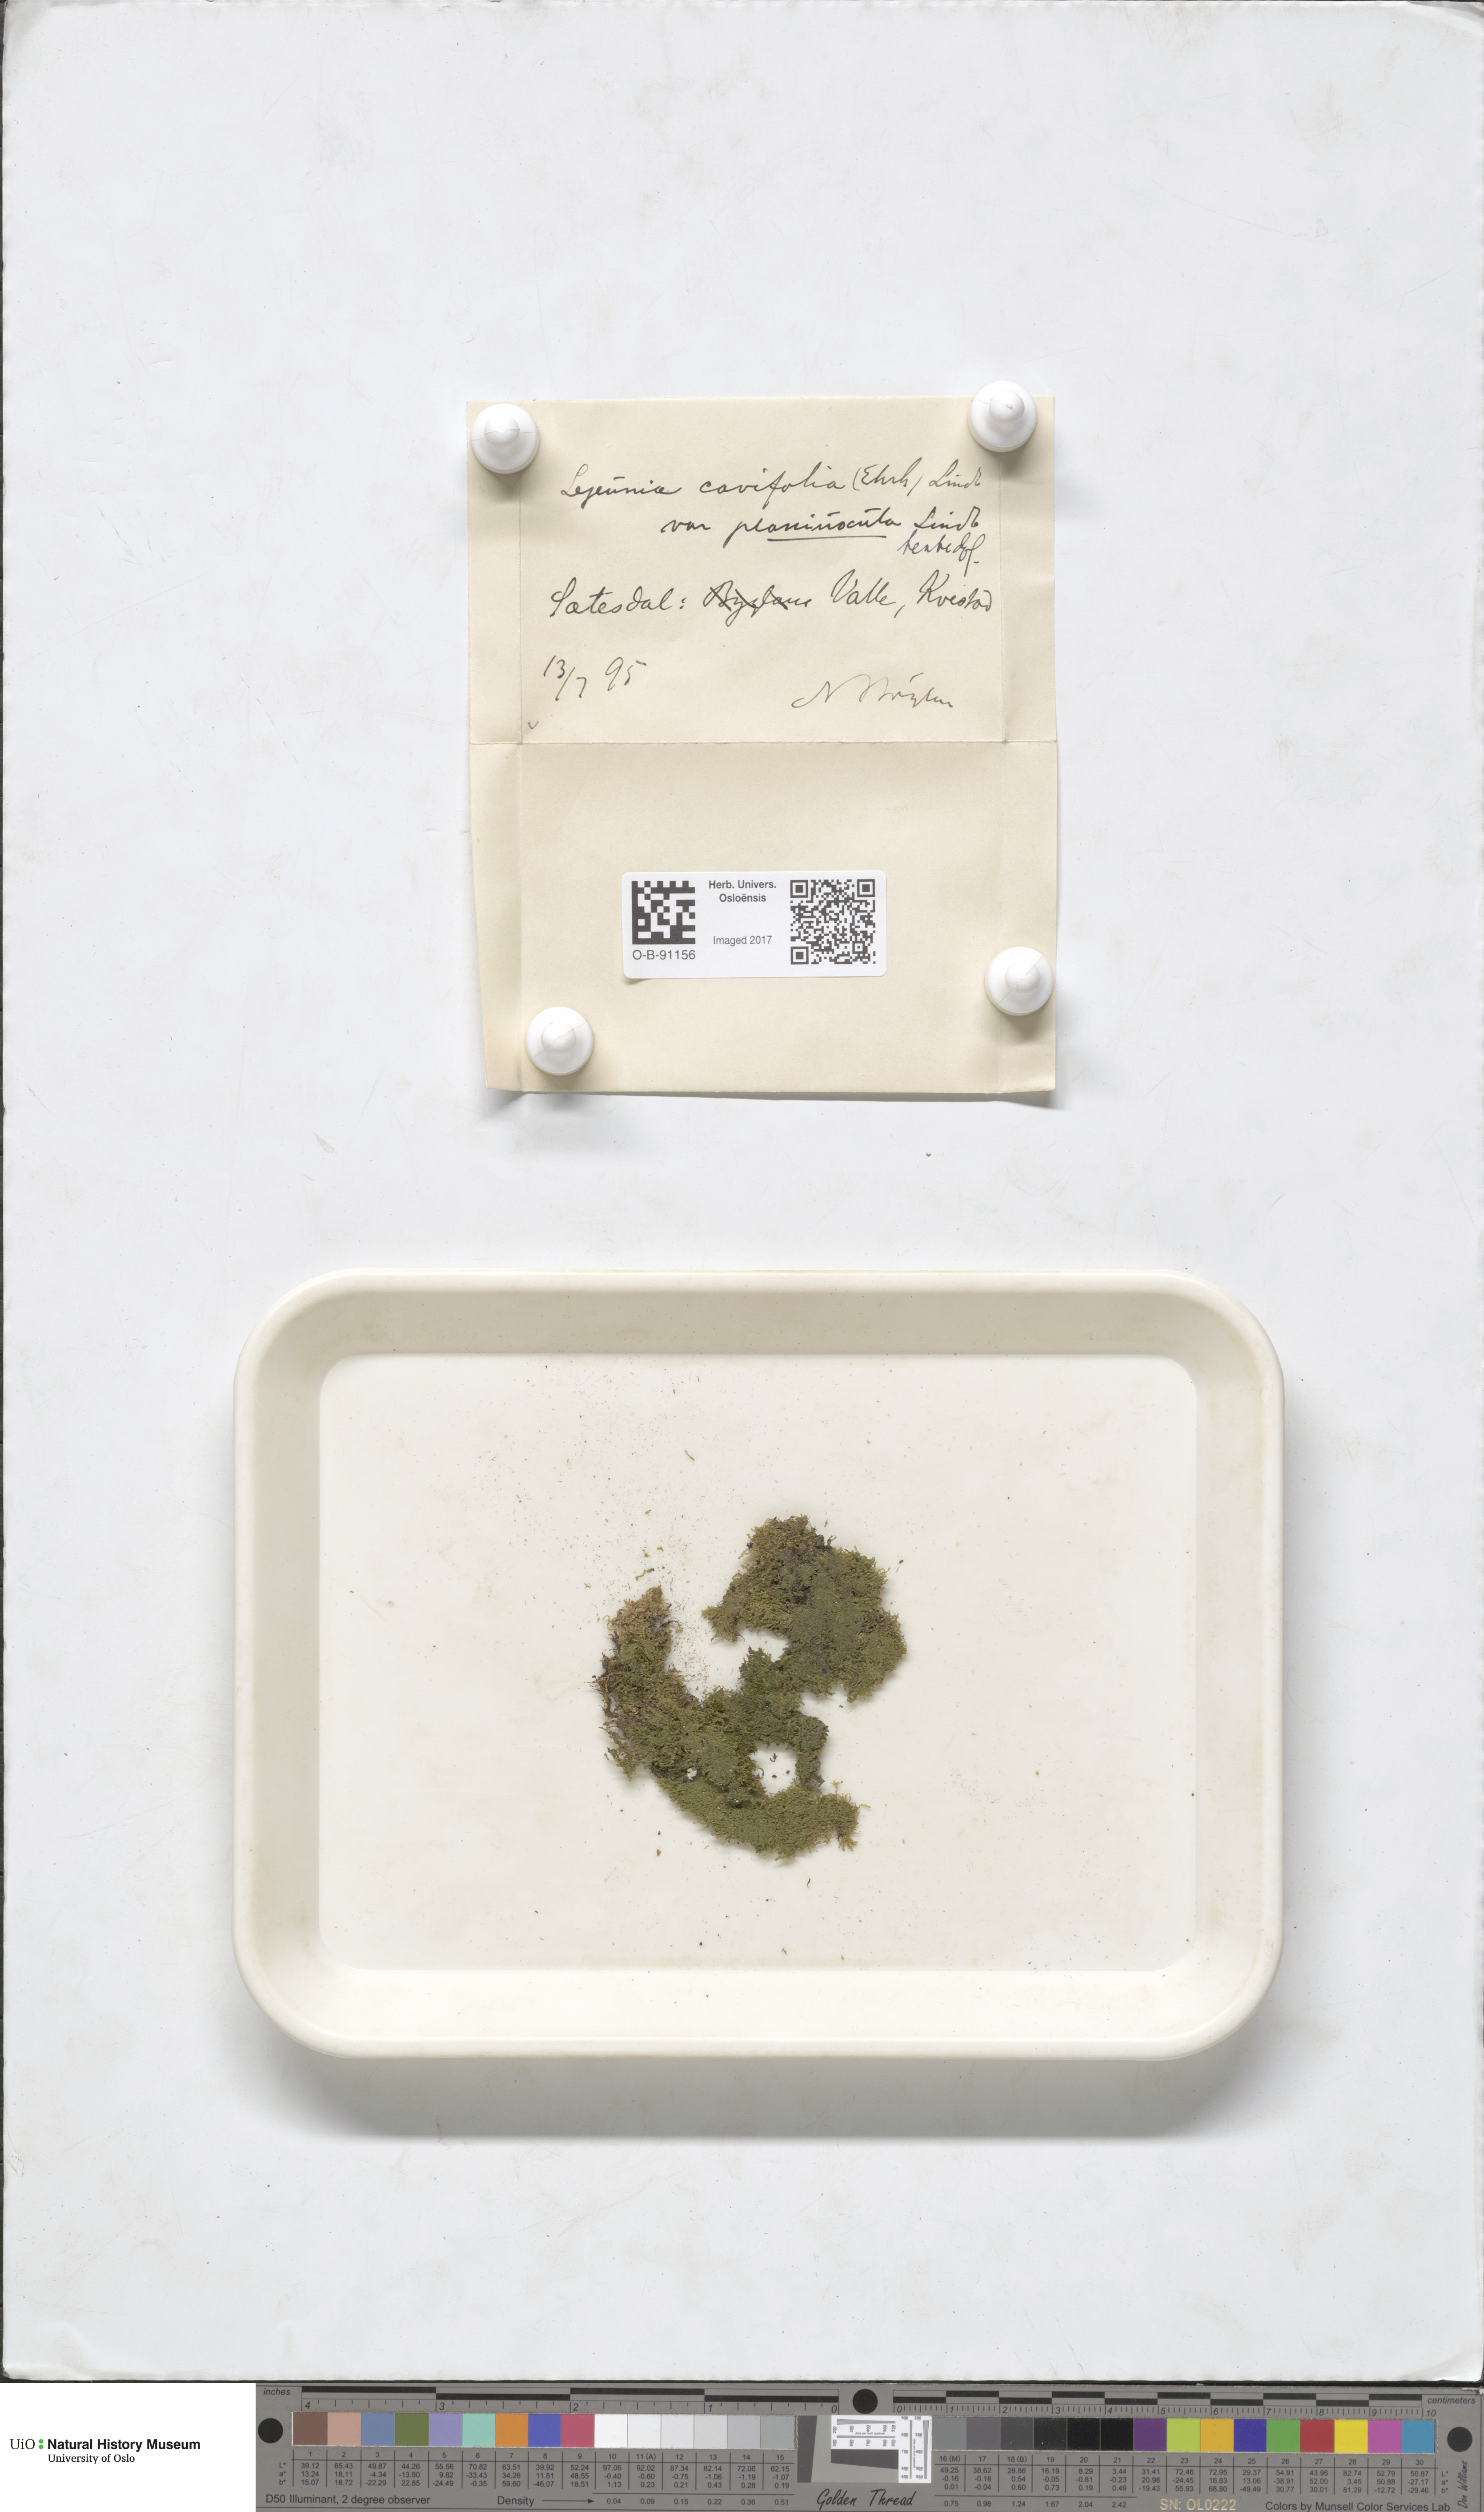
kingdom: Plantae
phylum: Marchantiophyta
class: Jungermanniopsida
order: Porellales
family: Lejeuneaceae
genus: Lejeunea
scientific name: Lejeunea cavifolia
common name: Least pouncewort
